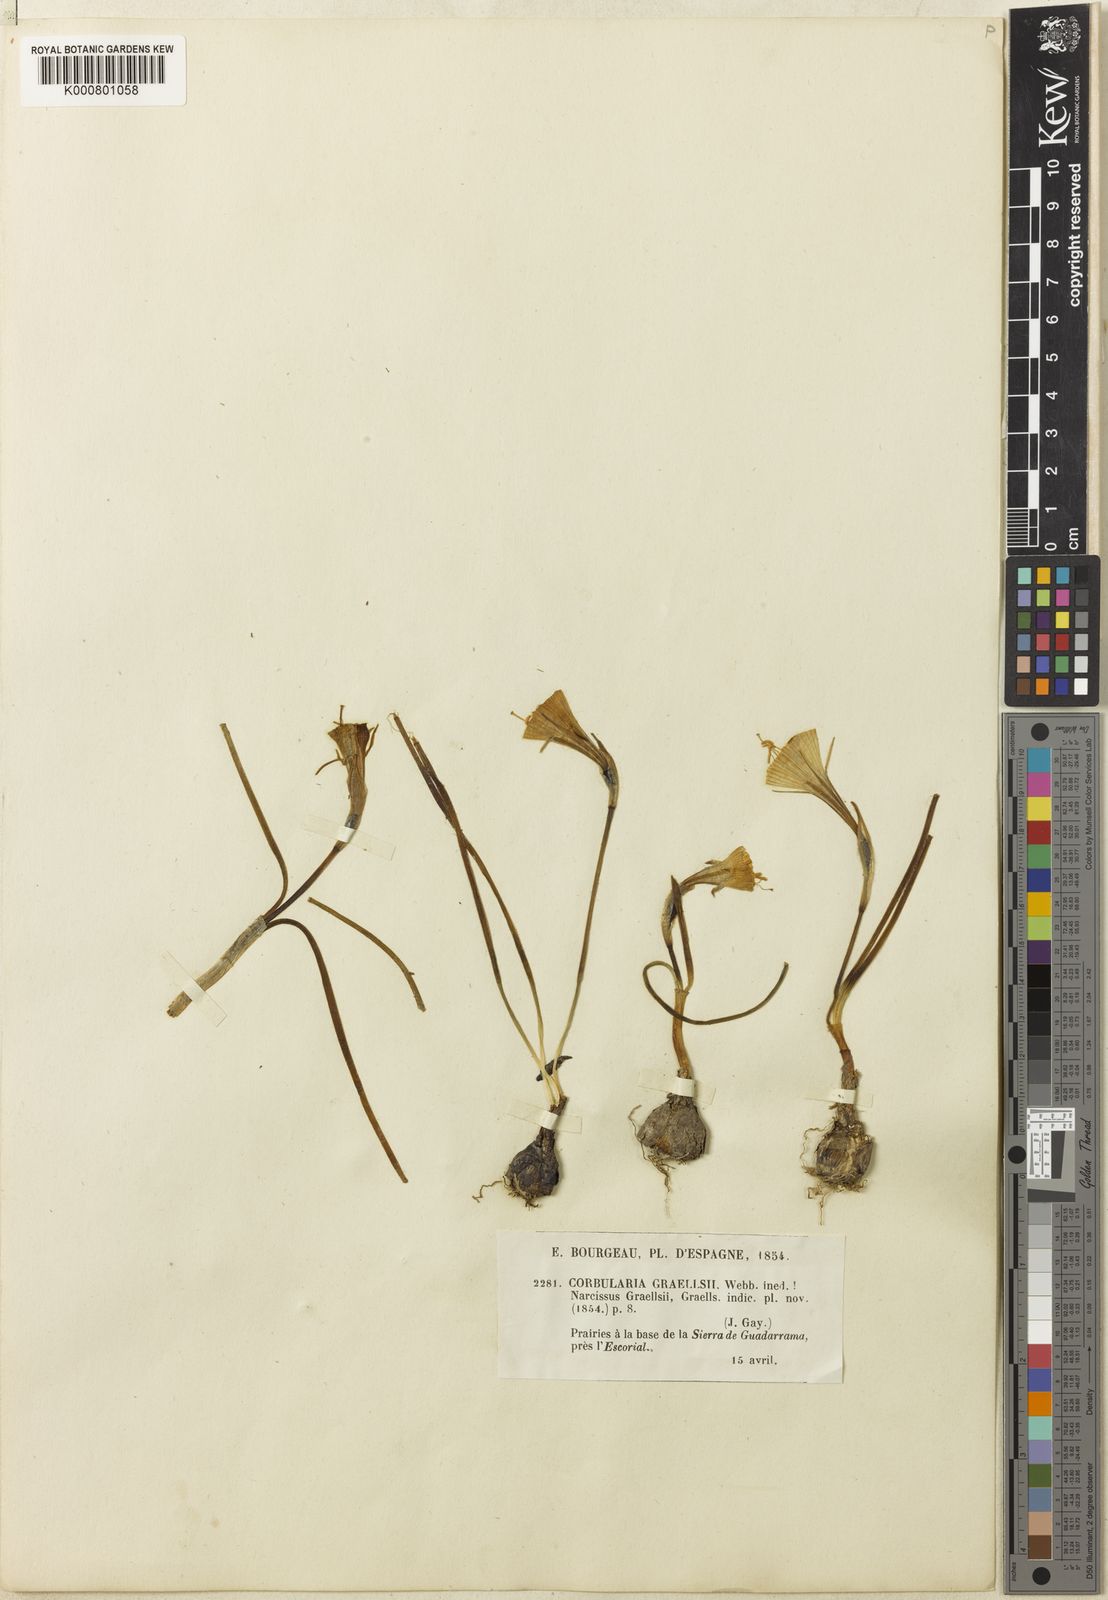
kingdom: Plantae
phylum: Tracheophyta
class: Liliopsida
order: Asparagales
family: Amaryllidaceae
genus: Narcissus
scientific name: Narcissus bulbocodium
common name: Hoop-petticoat daffodil
